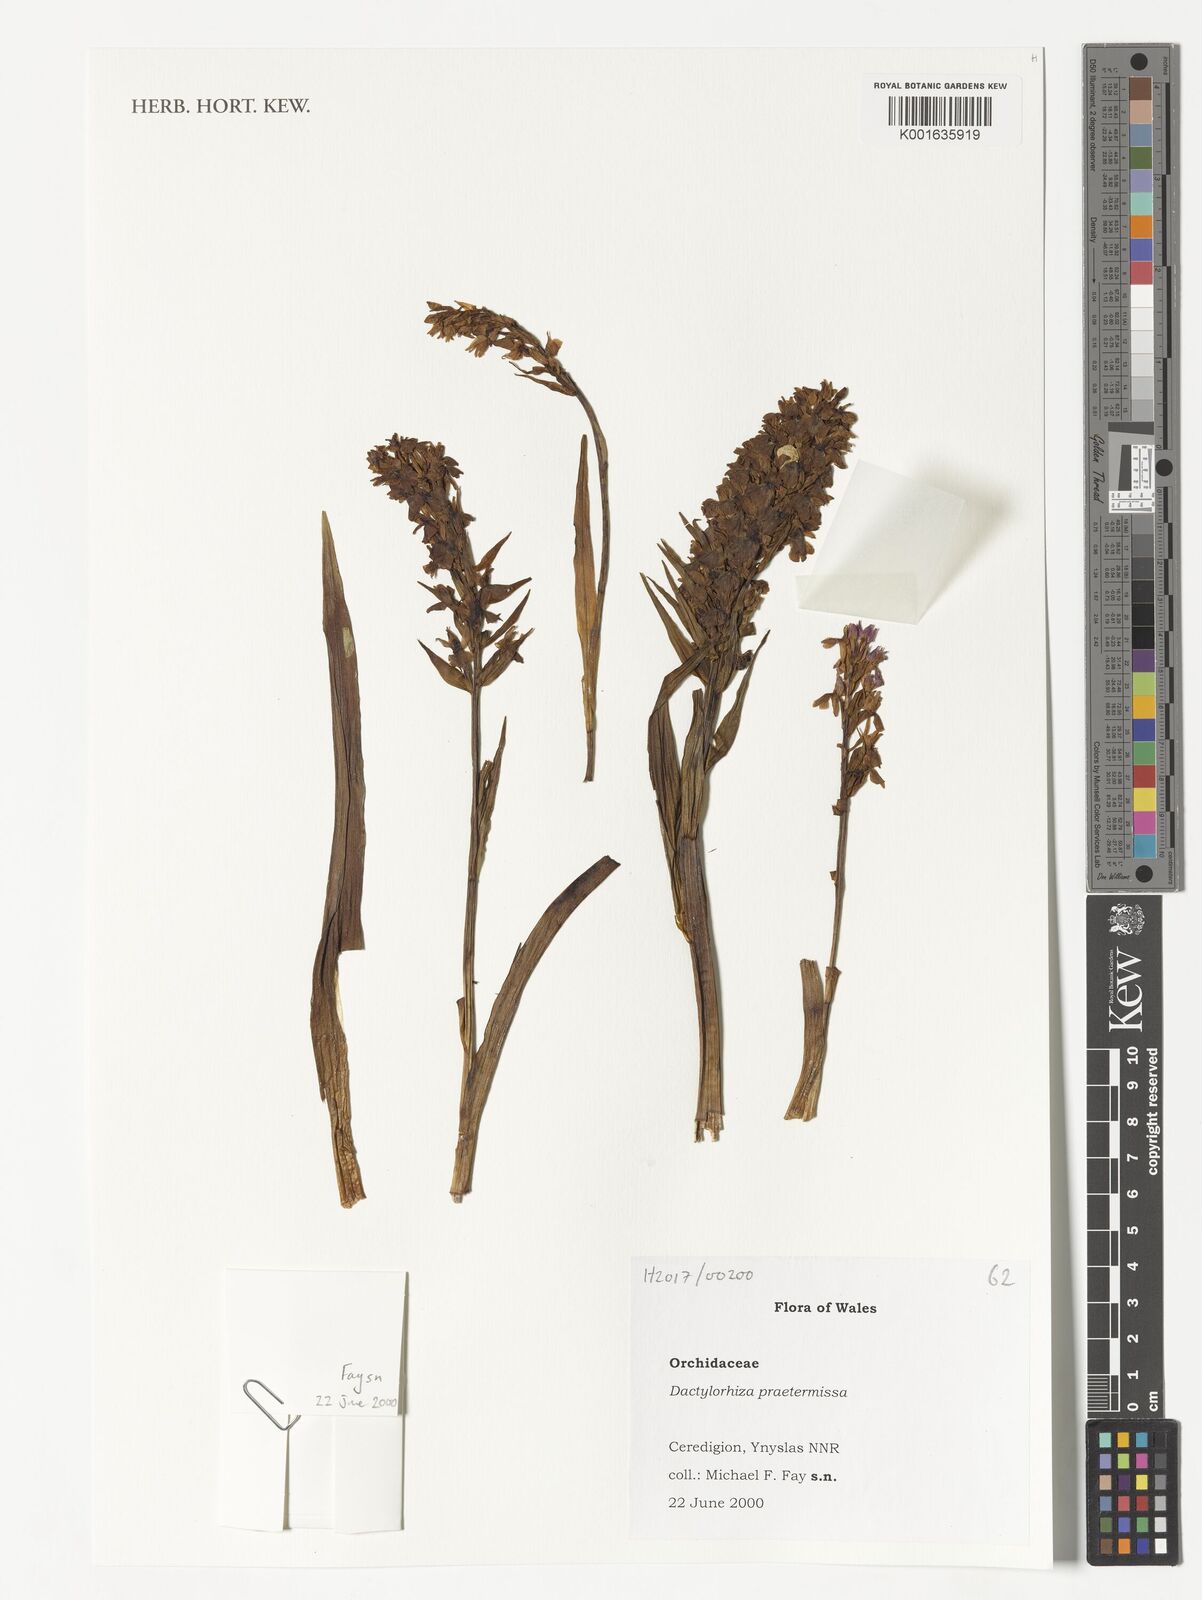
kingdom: Plantae
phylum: Tracheophyta
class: Liliopsida
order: Asparagales
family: Orchidaceae
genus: Dactylorhiza
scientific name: Dactylorhiza majalis
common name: Marsh orchid
